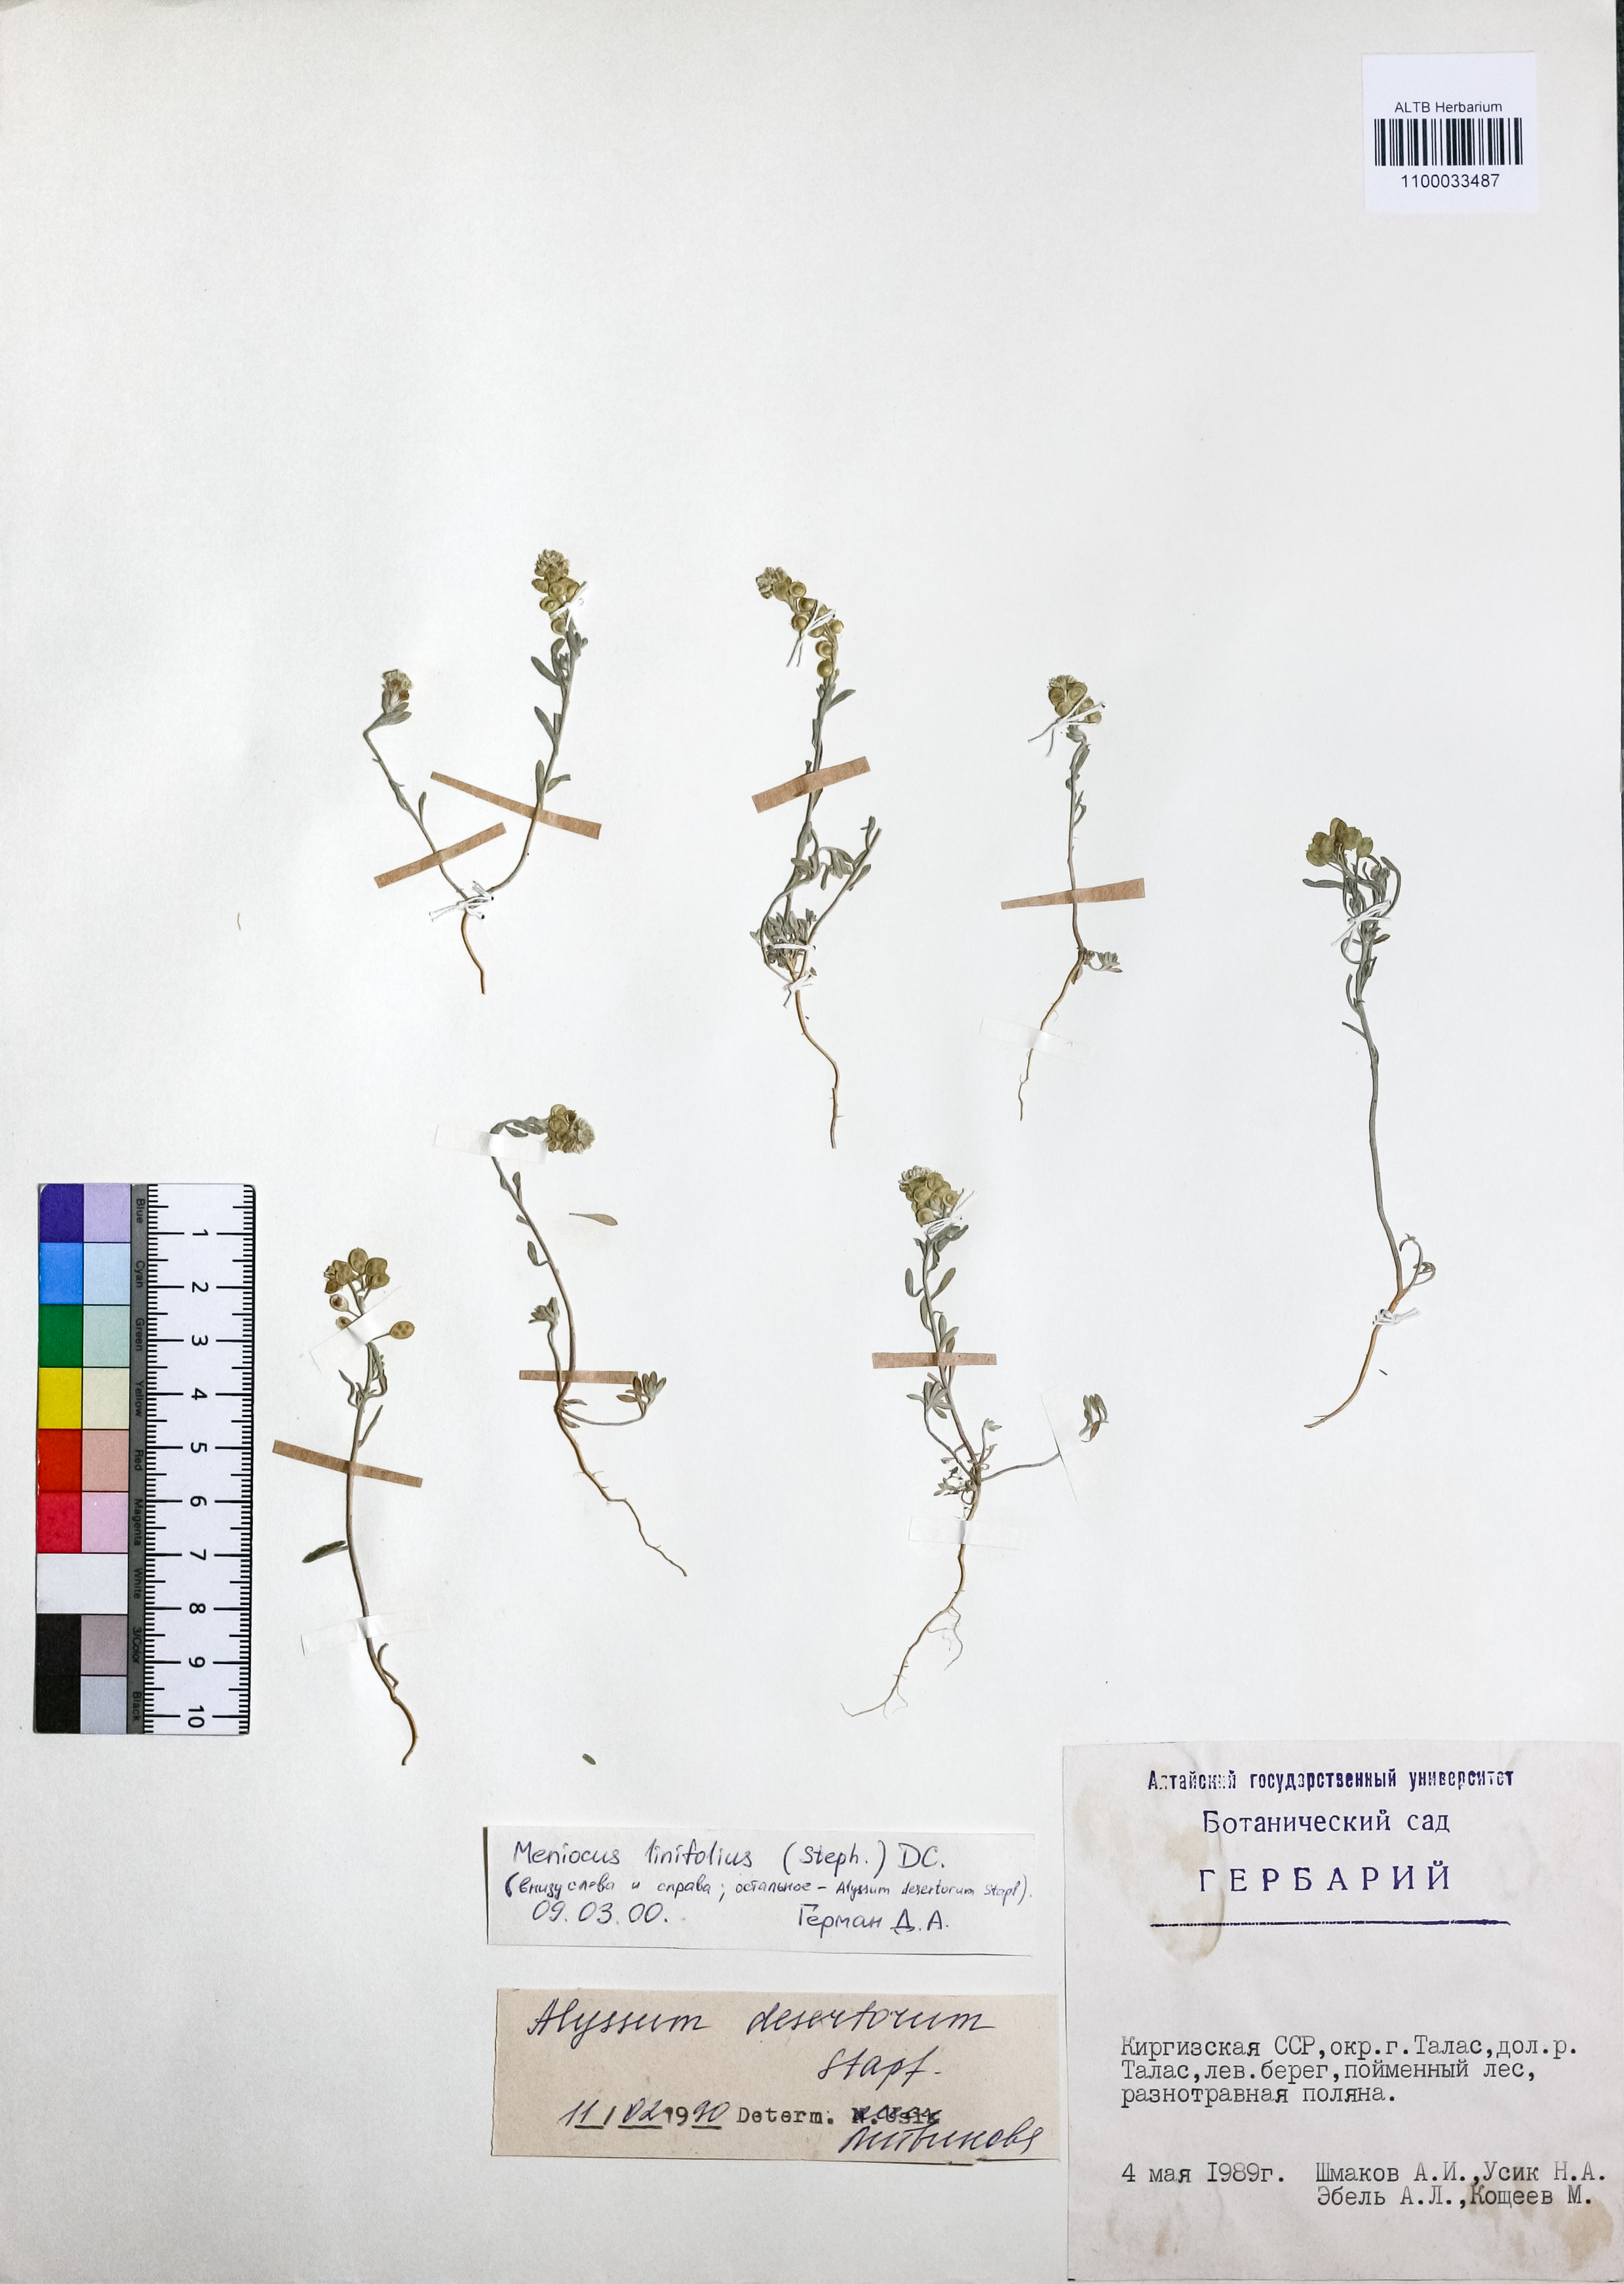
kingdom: Plantae
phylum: Tracheophyta
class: Magnoliopsida
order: Brassicales
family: Brassicaceae
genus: Meniocus
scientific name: Meniocus linifolius
